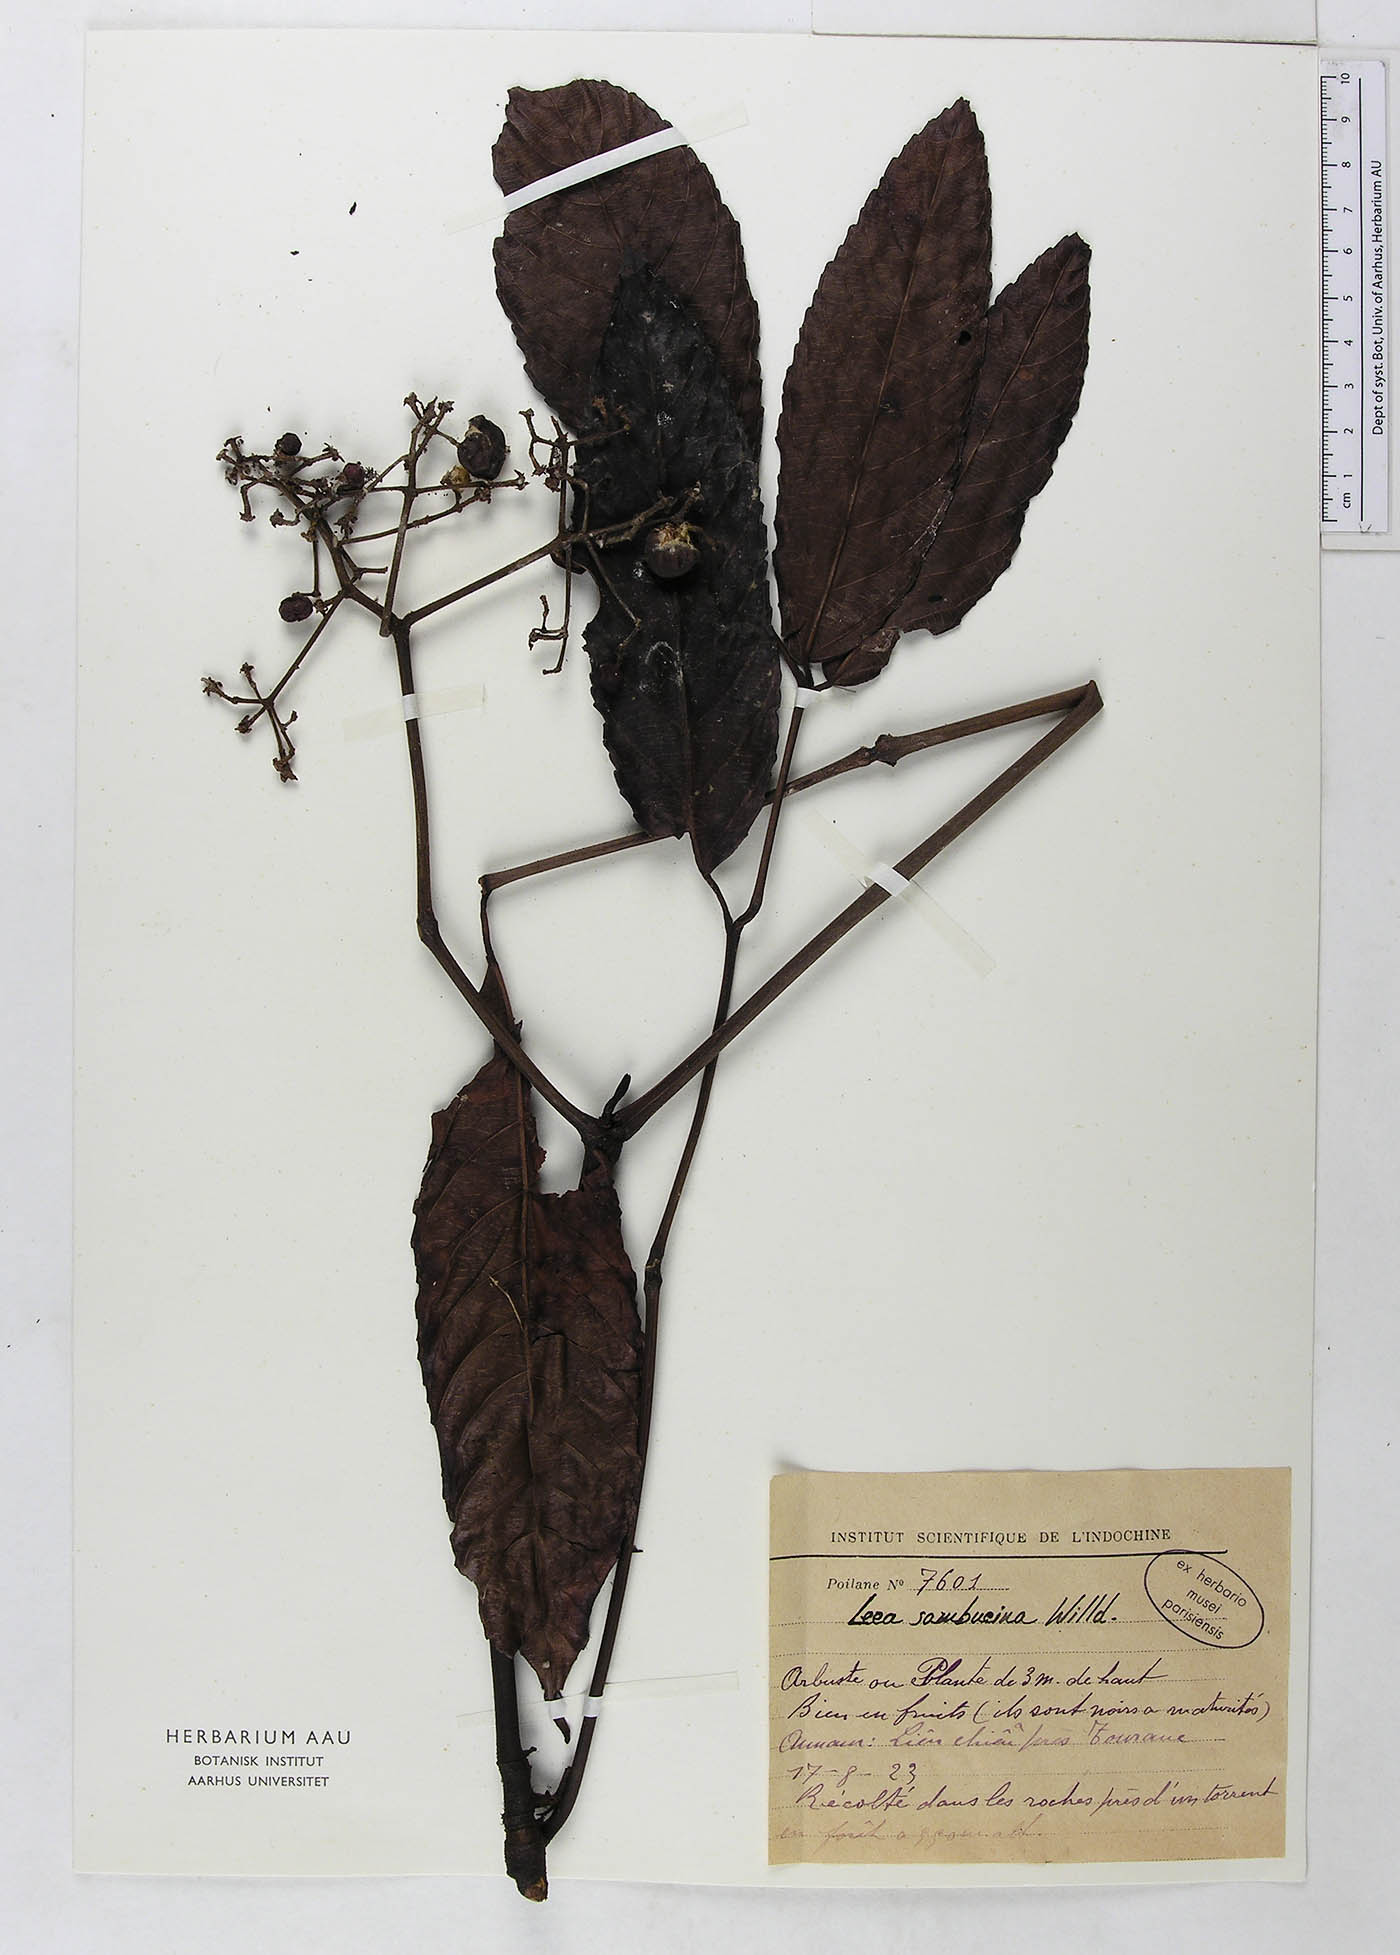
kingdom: Plantae
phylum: Tracheophyta
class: Magnoliopsida
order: Vitales
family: Vitaceae
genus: Leea
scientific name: Leea indica
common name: Bandicoot-berry
